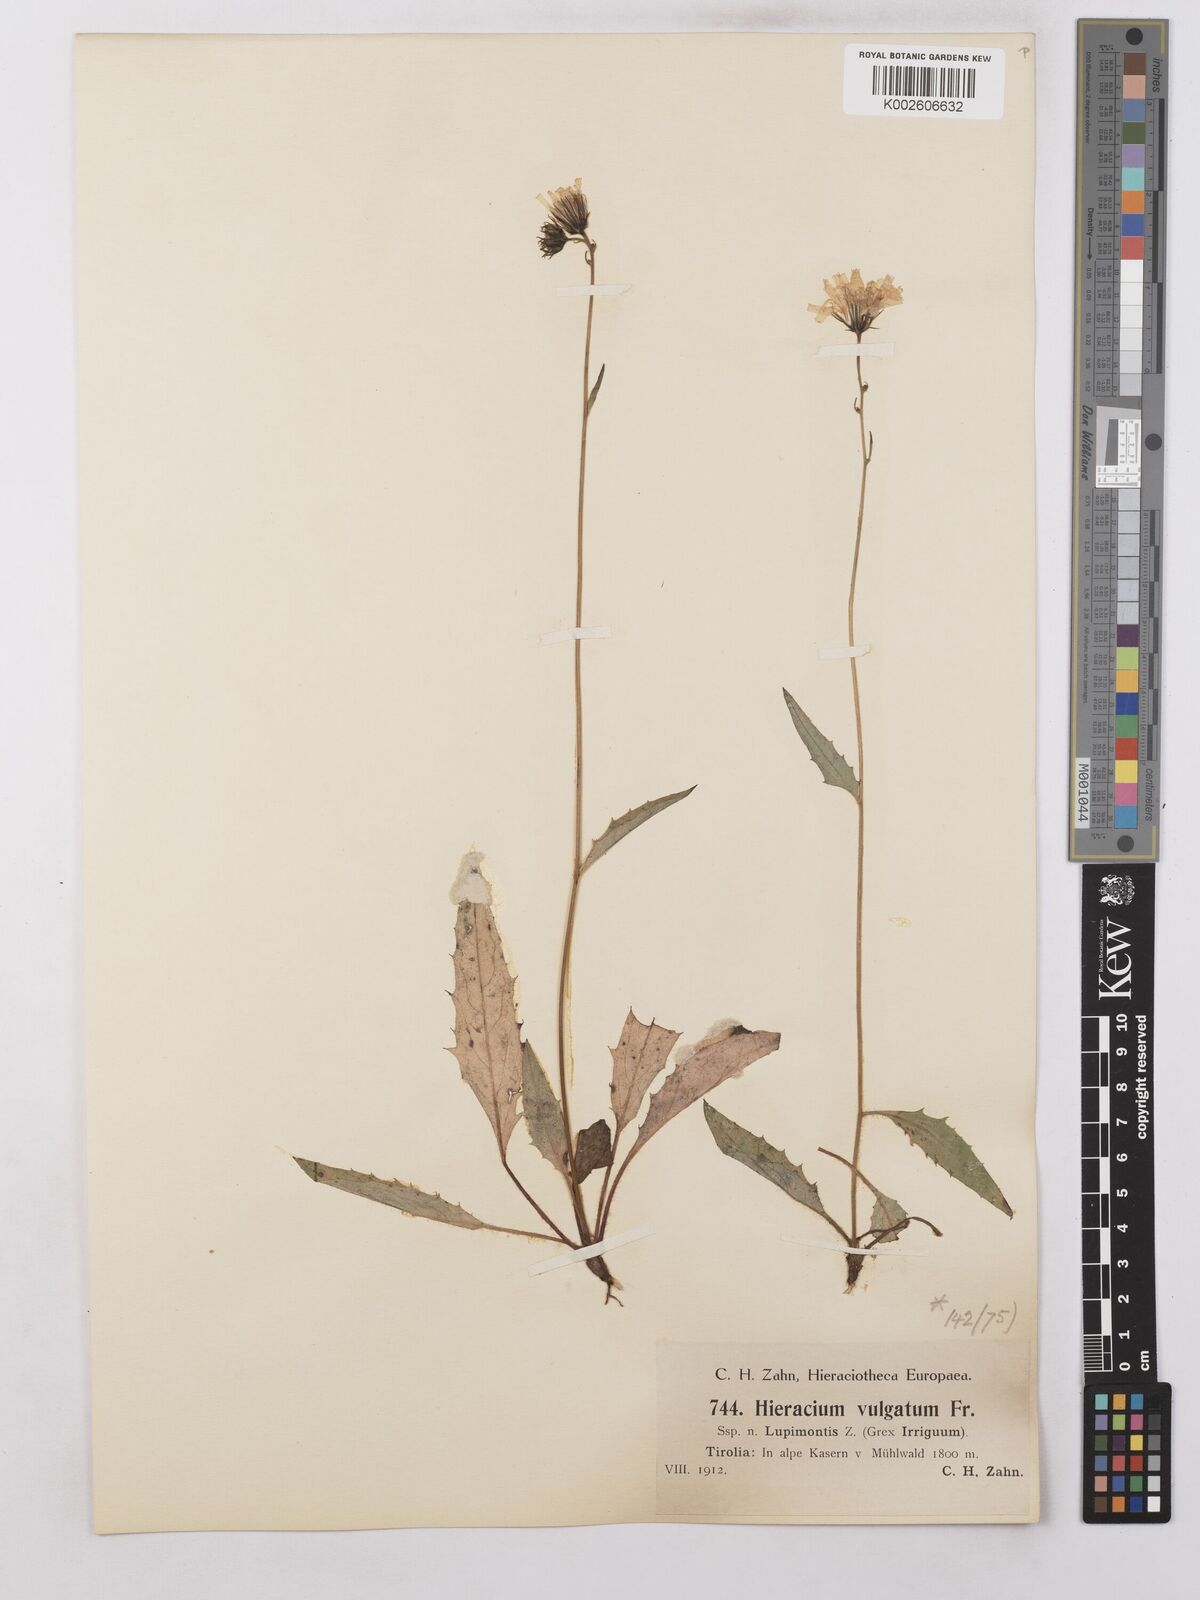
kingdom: Plantae
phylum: Tracheophyta
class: Magnoliopsida
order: Asterales
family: Asteraceae
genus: Hieracium
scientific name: Hieracium lachenalii
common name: Common hawkweed
